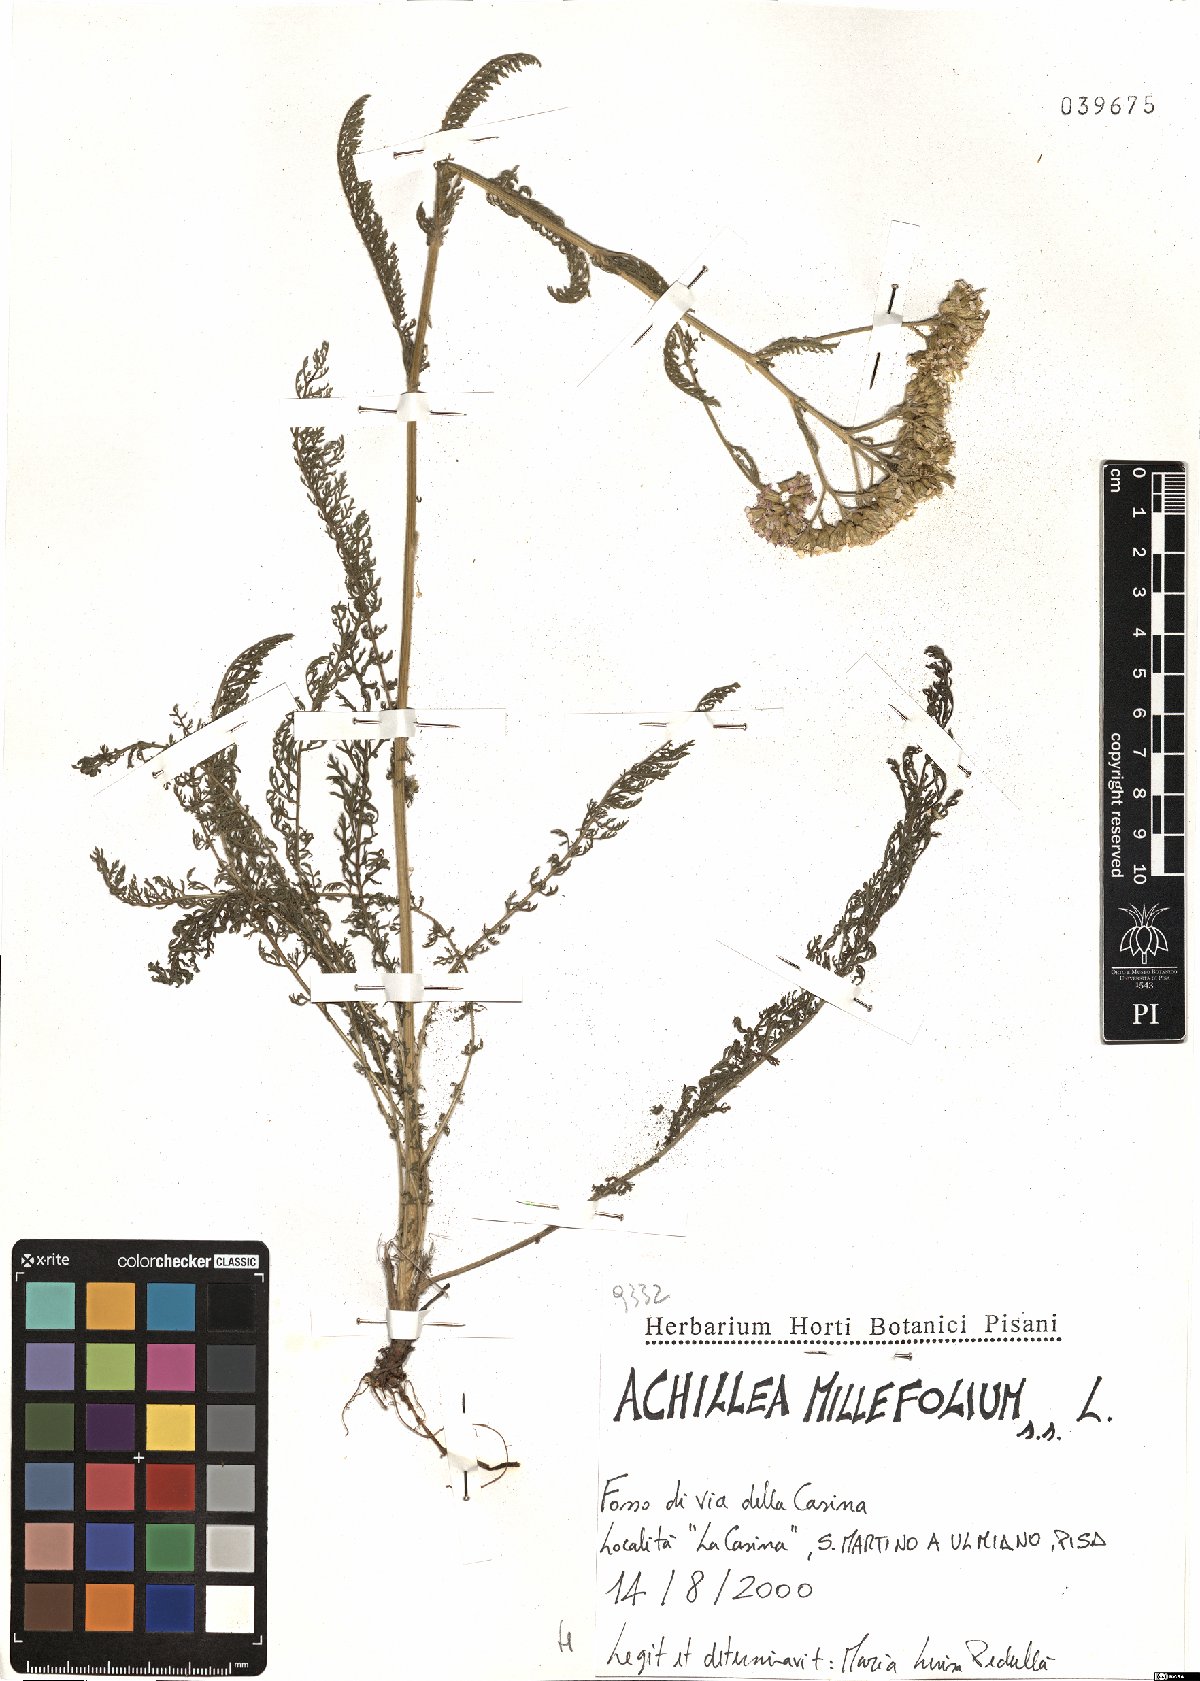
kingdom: Plantae
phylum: Tracheophyta
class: Magnoliopsida
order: Asterales
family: Asteraceae
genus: Achillea
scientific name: Achillea millefolium
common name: Yarrow
